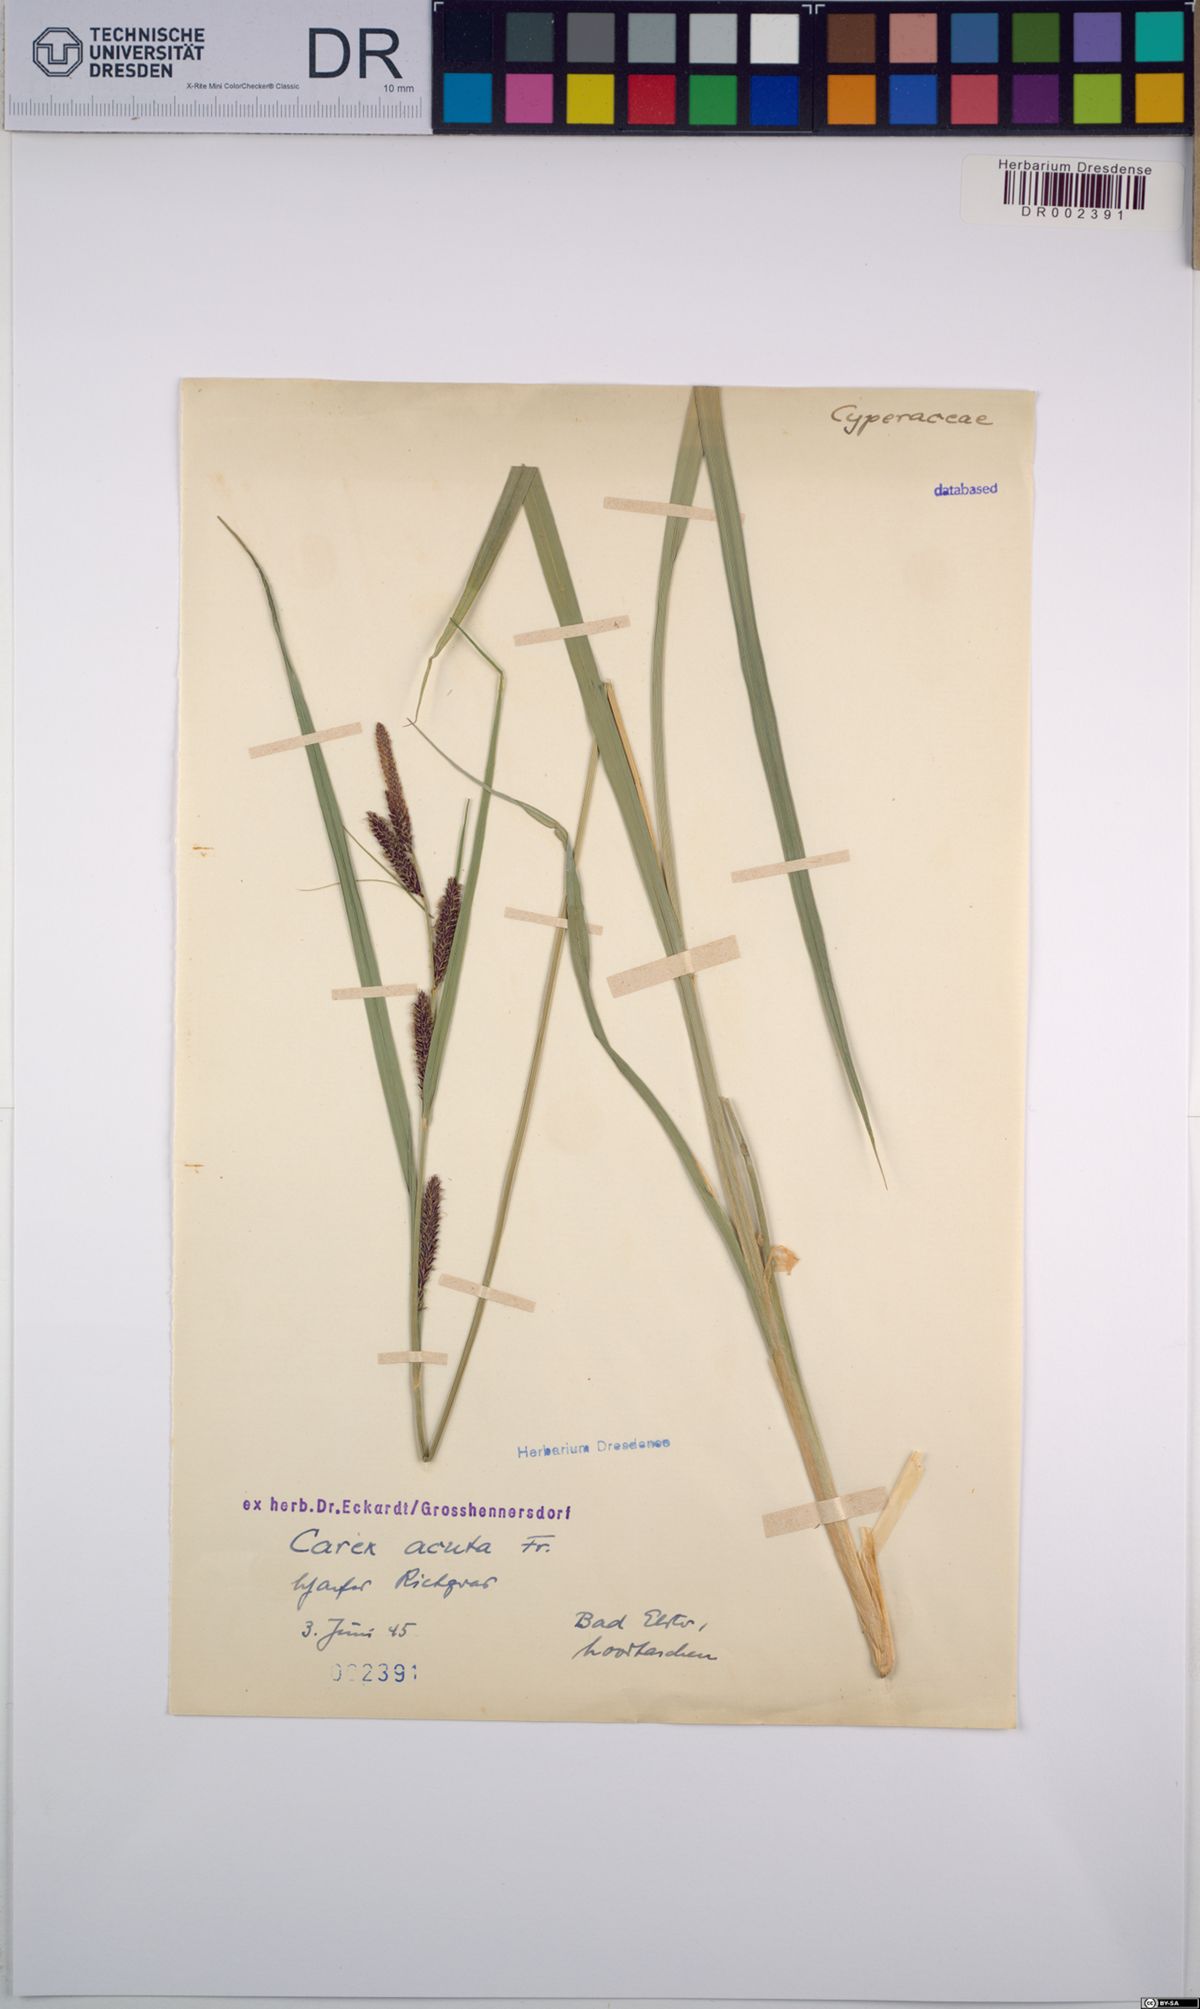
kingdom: Plantae
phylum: Tracheophyta
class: Liliopsida
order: Poales
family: Cyperaceae
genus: Carex
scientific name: Carex acuta
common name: Slender tufted-sedge
